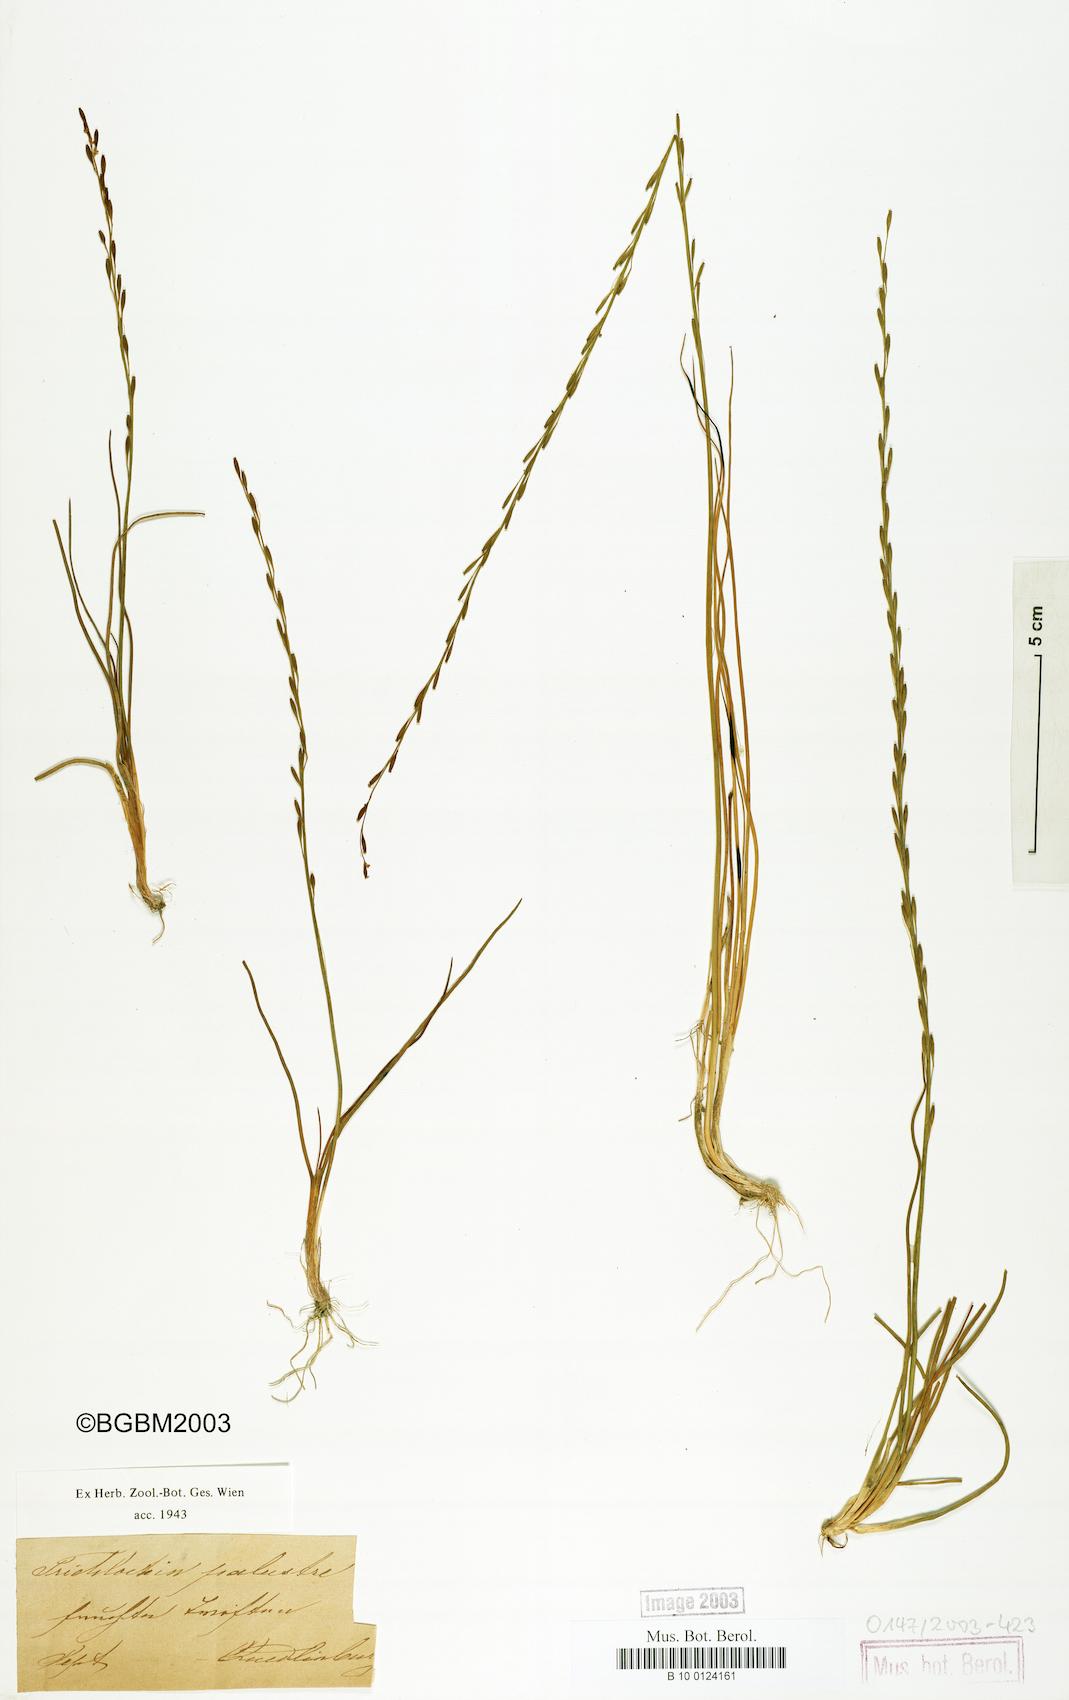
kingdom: Plantae
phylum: Tracheophyta
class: Liliopsida
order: Alismatales
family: Juncaginaceae
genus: Triglochin
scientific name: Triglochin palustris
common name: Marsh arrowgrass
